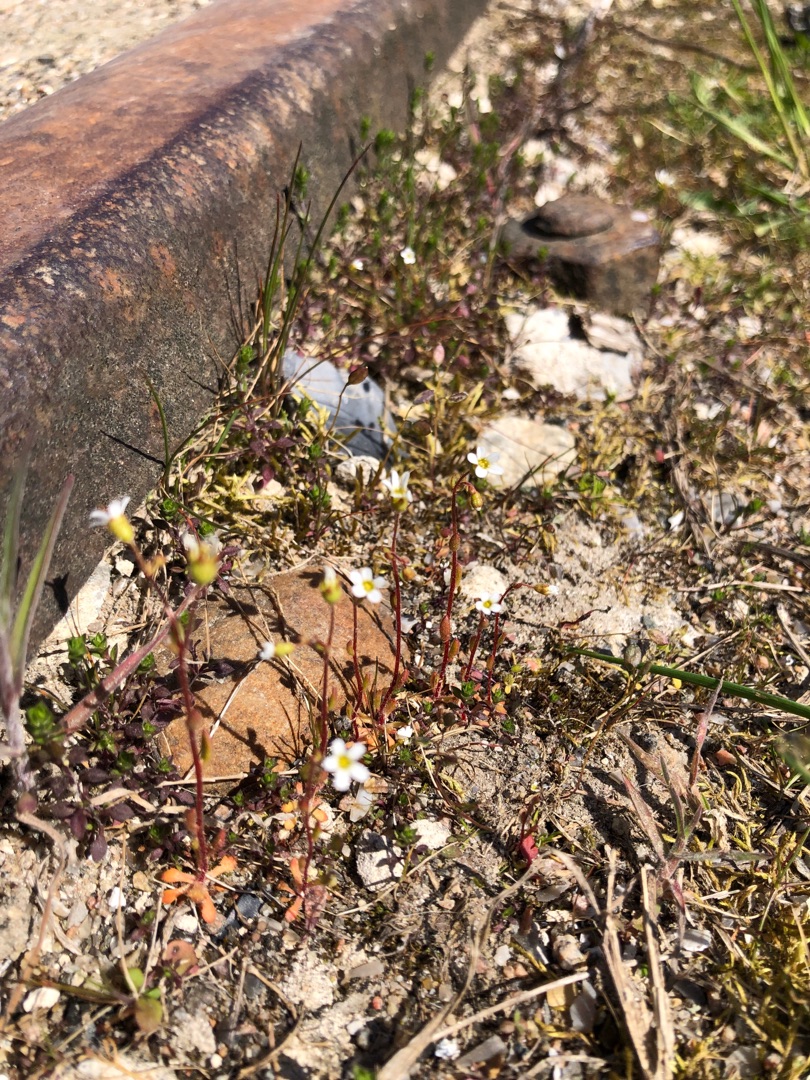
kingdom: Plantae
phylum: Tracheophyta
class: Magnoliopsida
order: Saxifragales
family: Saxifragaceae
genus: Saxifraga
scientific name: Saxifraga tridactylites
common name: Trekløft-stenbræk
